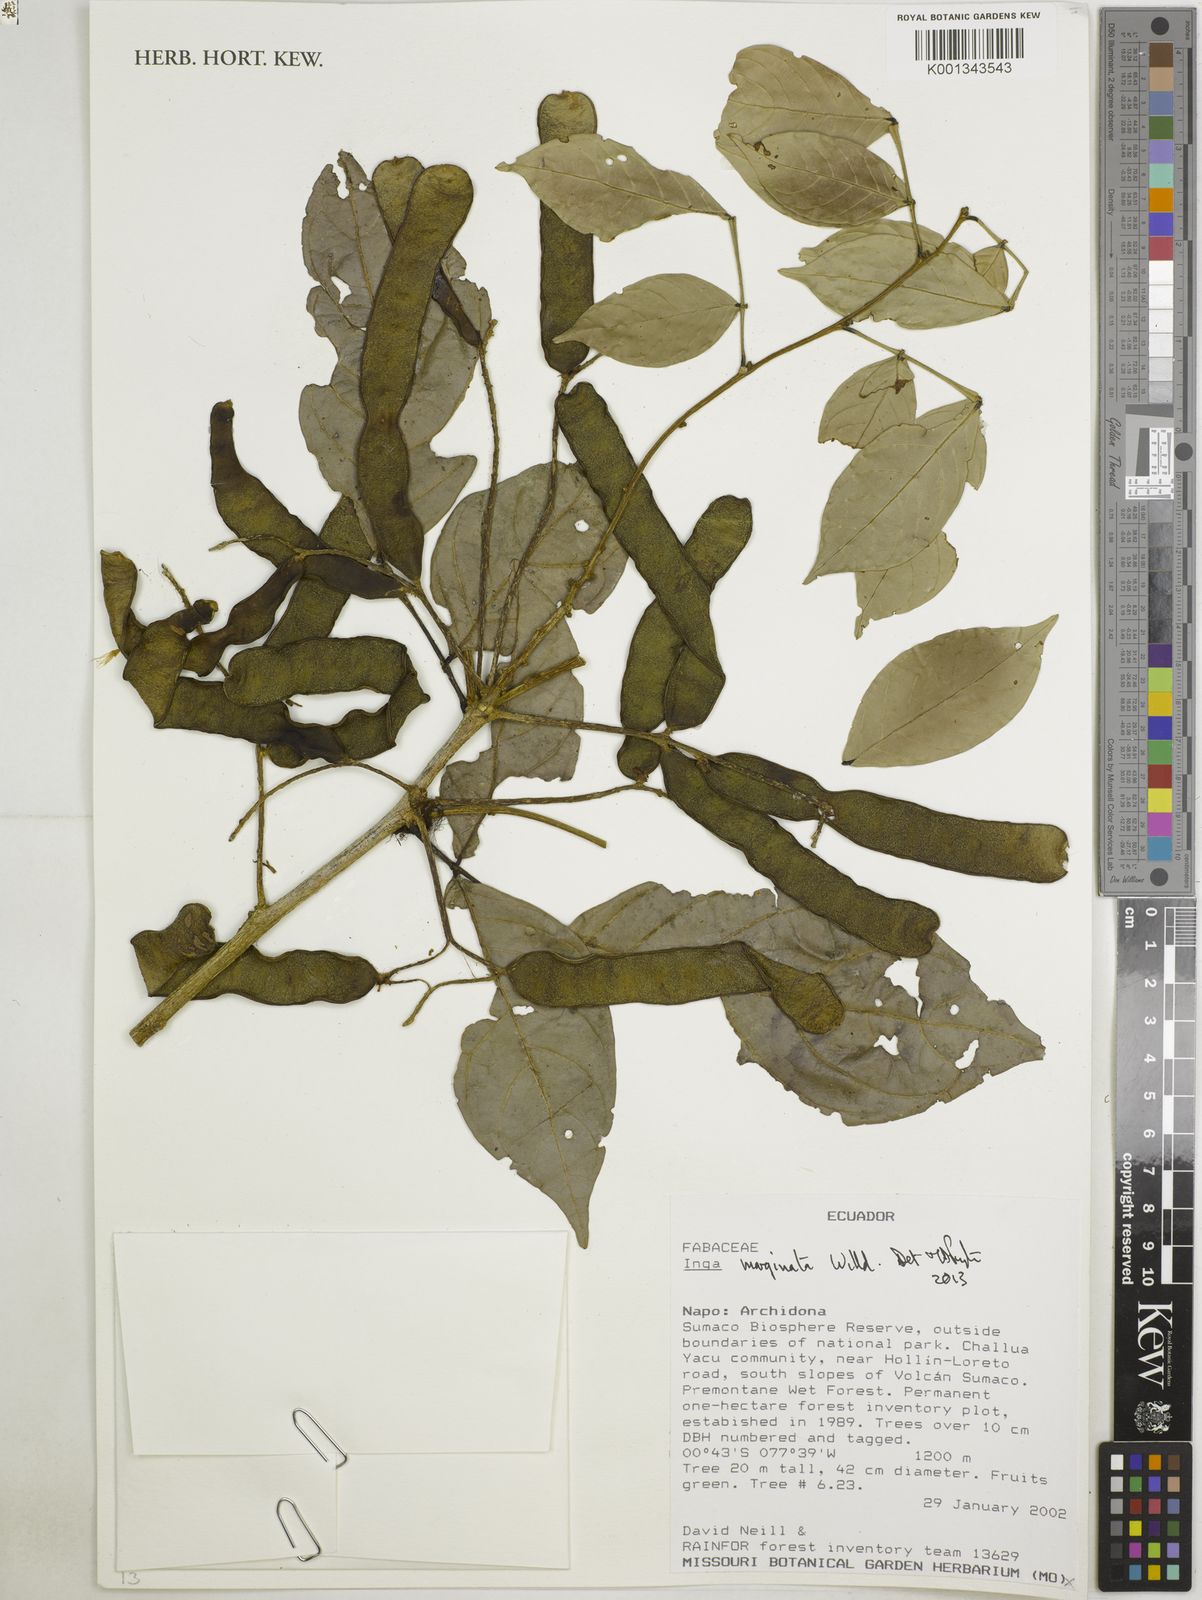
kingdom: Plantae
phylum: Tracheophyta
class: Magnoliopsida
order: Fabales
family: Fabaceae
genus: Inga
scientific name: Inga marginata
